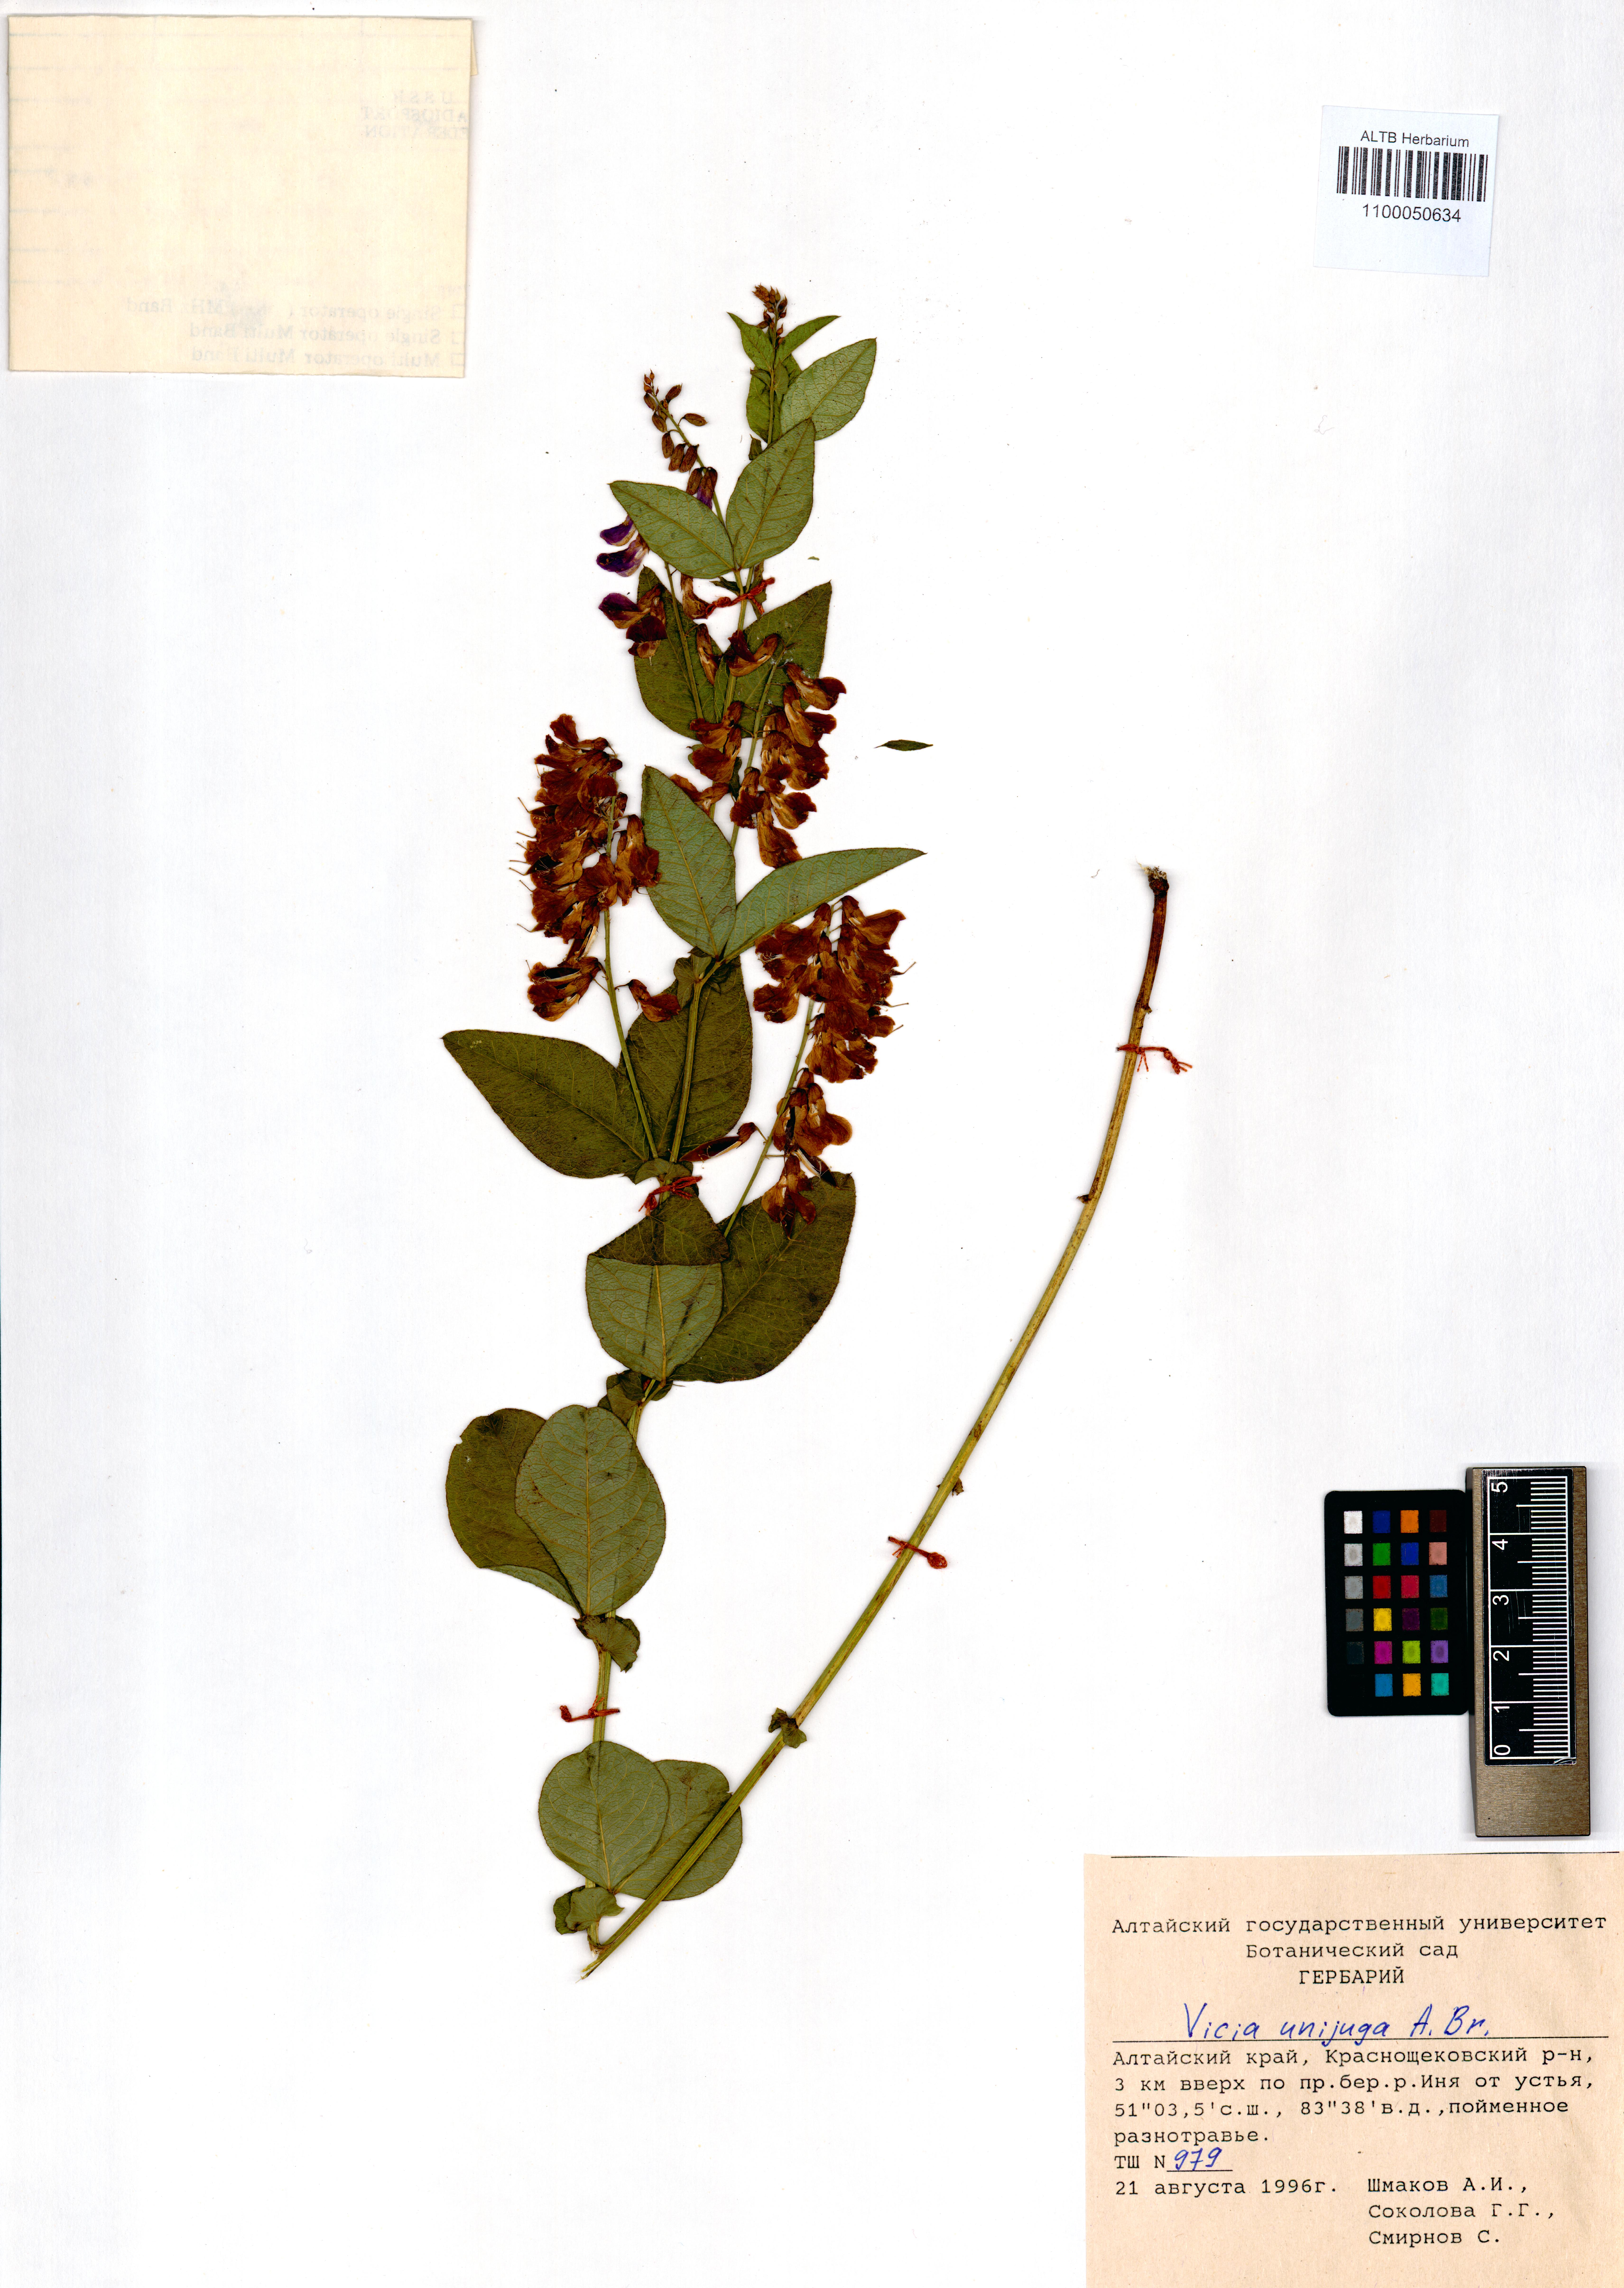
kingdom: Plantae
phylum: Tracheophyta
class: Magnoliopsida
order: Fabales
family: Fabaceae
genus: Vicia
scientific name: Vicia unijuga
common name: Two-leaf vetch
